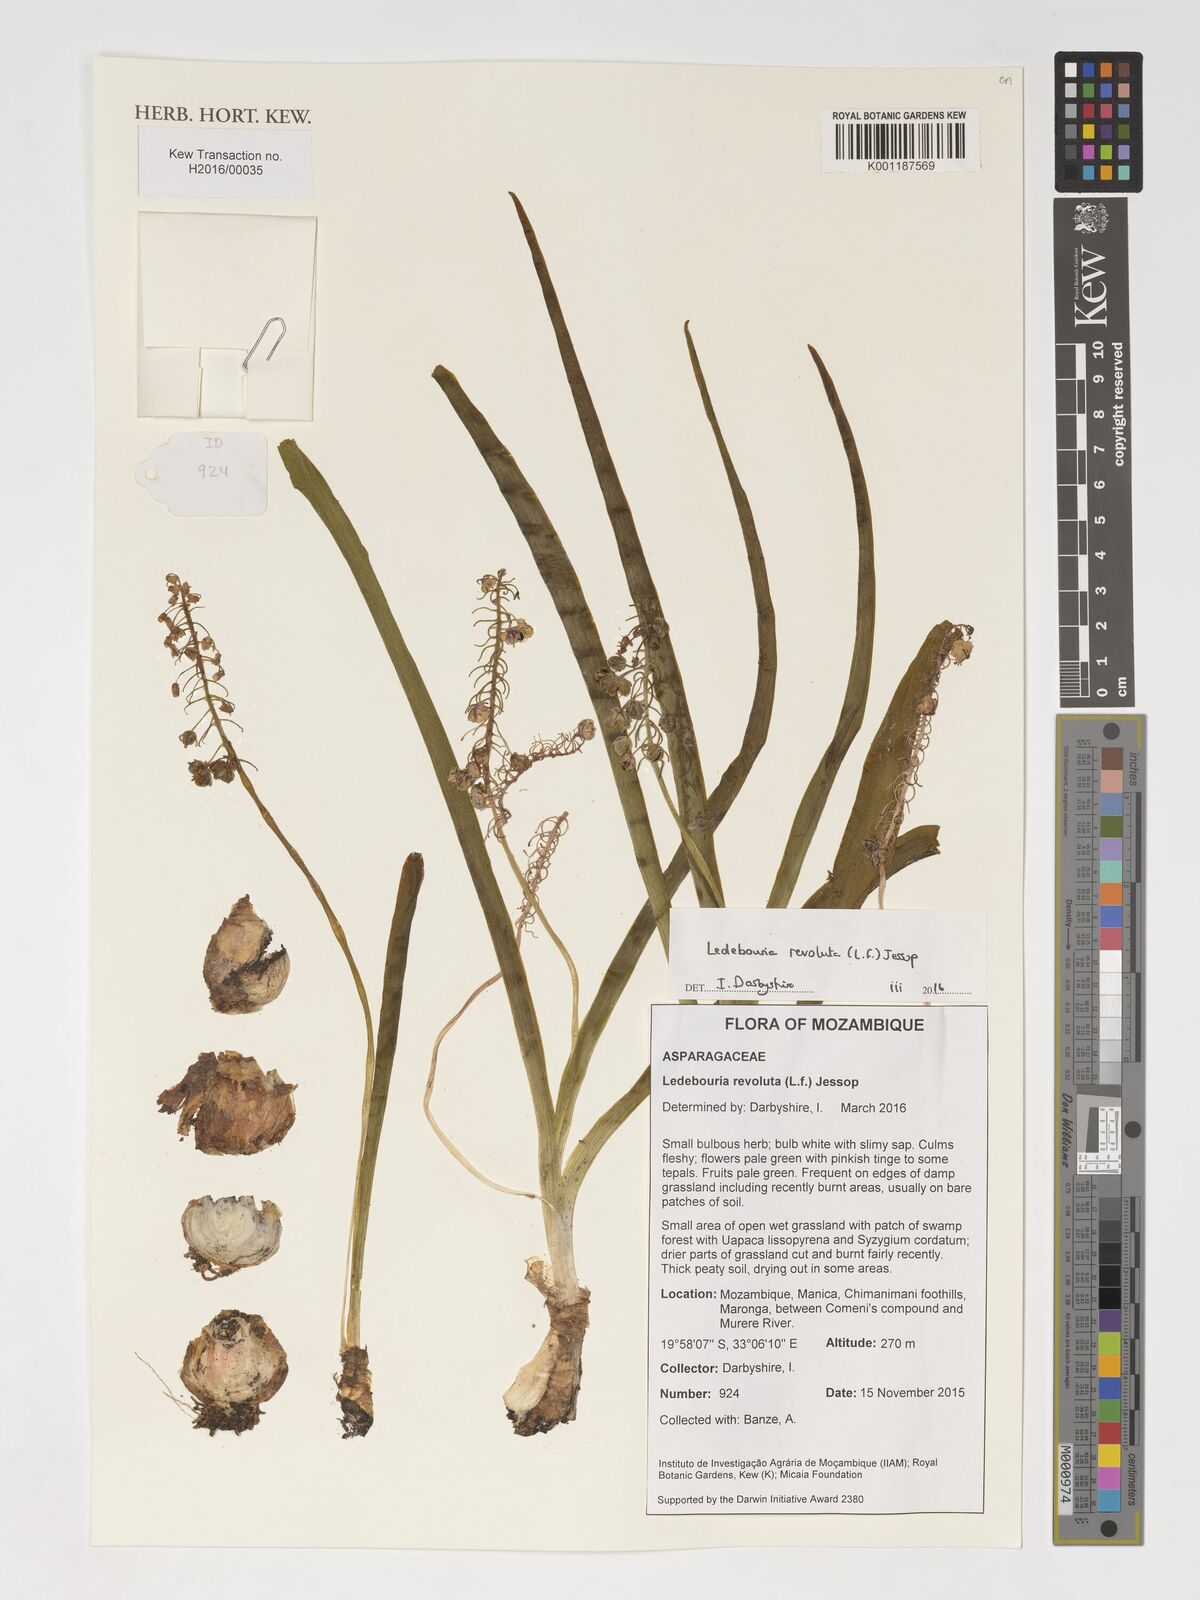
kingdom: Plantae
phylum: Tracheophyta
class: Liliopsida
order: Asparagales
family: Asparagaceae
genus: Ledebouria
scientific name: Ledebouria revoluta
